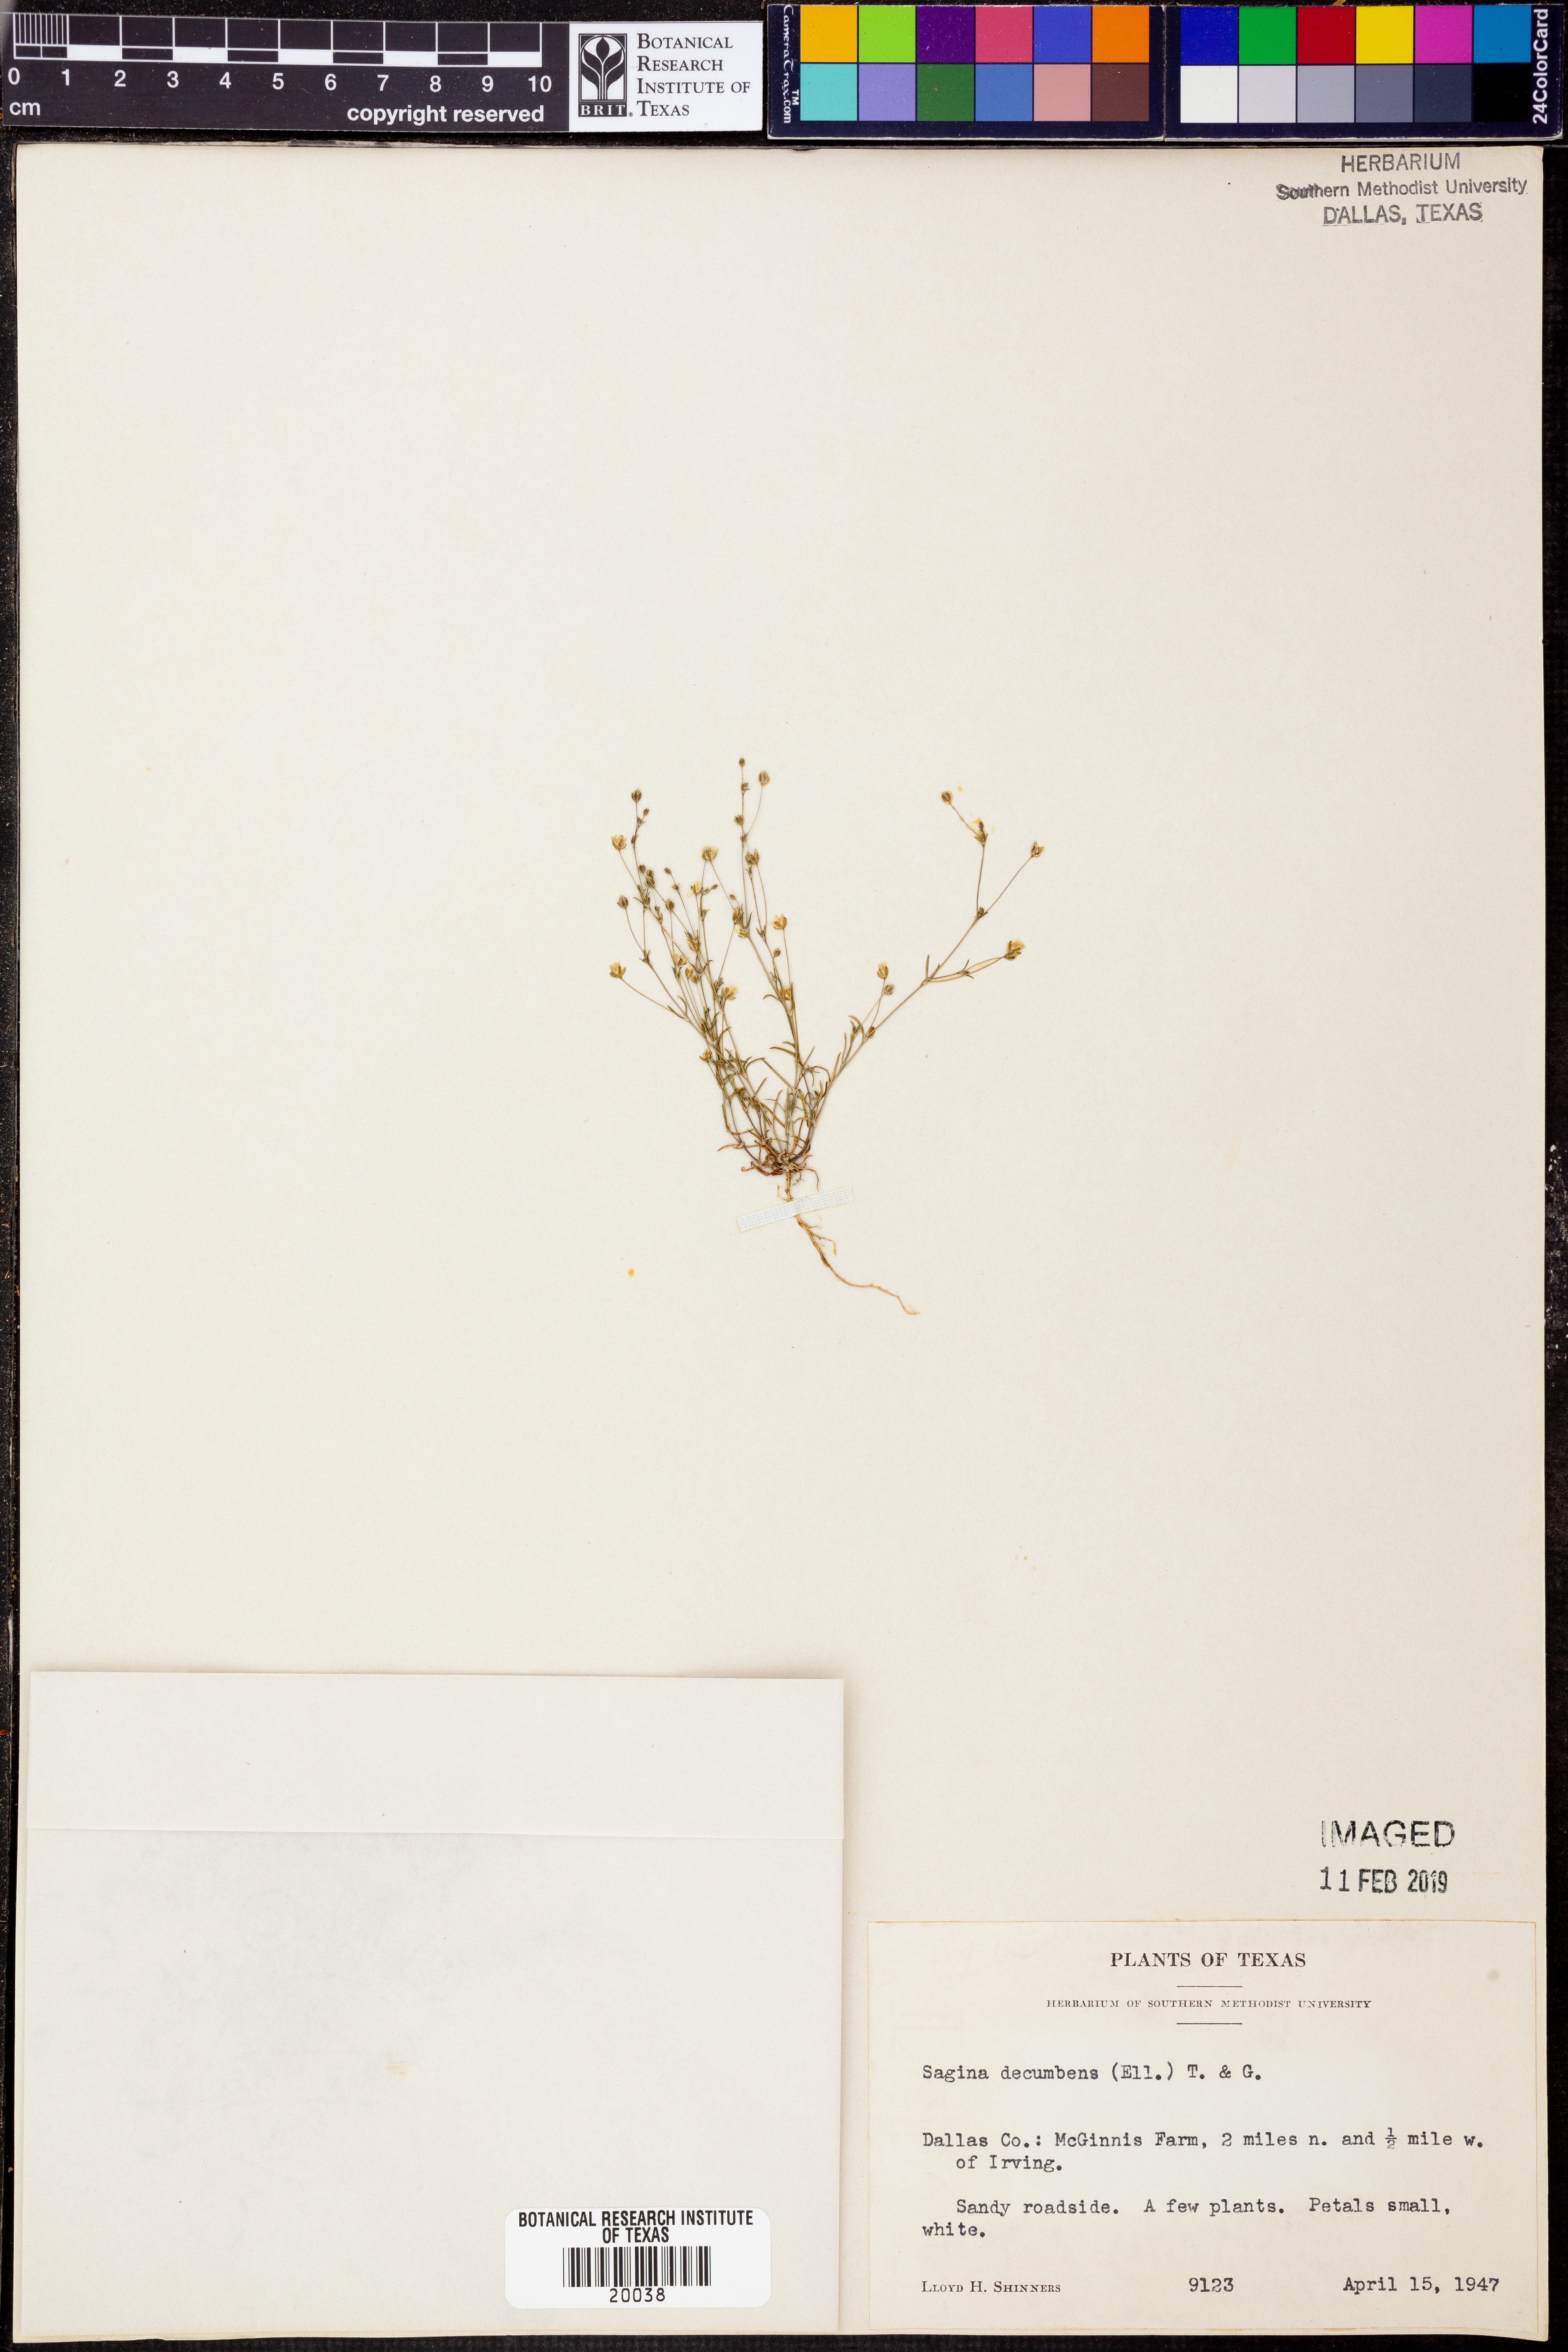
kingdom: Plantae
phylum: Tracheophyta
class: Magnoliopsida
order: Caryophyllales
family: Caryophyllaceae
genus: Sagina
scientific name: Sagina decumbens
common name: Decumbent pearlwort
